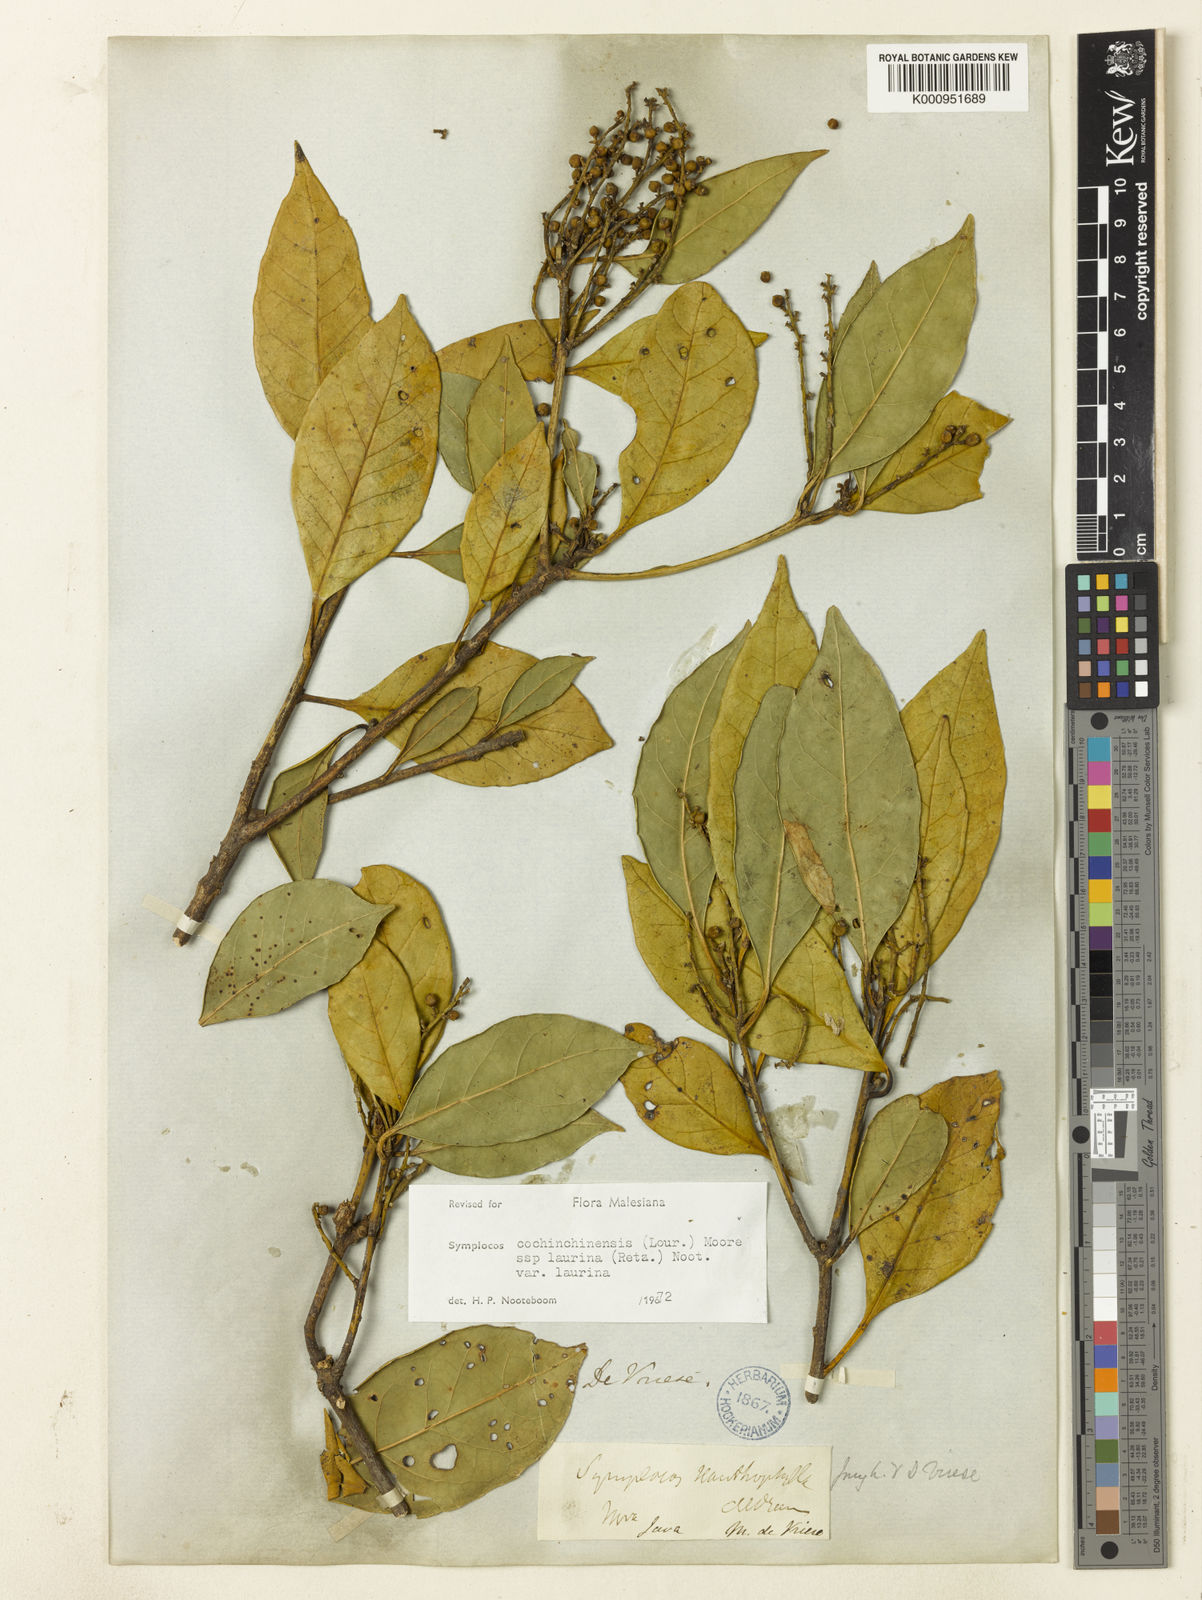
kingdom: Plantae
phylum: Tracheophyta
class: Magnoliopsida
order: Ericales
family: Symplocaceae
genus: Symplocos
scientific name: Symplocos acuminata
